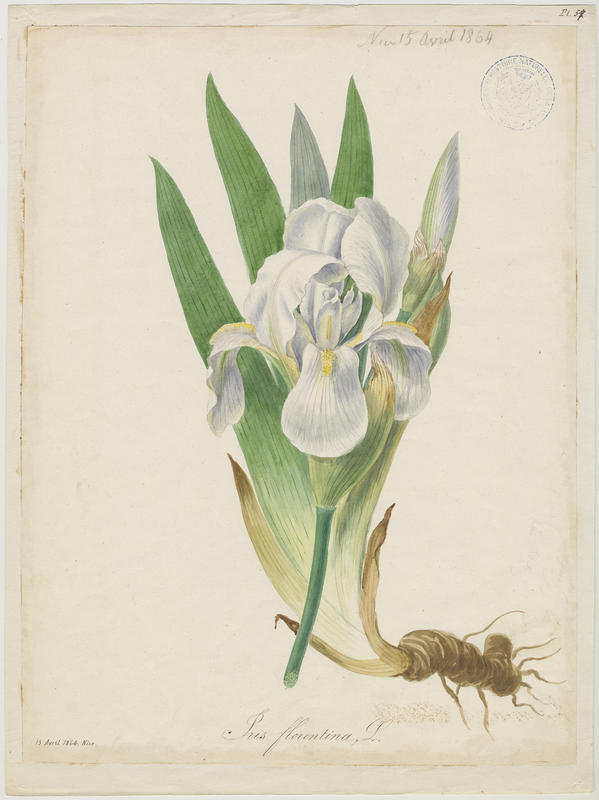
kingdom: Plantae
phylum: Tracheophyta
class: Liliopsida
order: Asparagales
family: Iridaceae
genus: Iris
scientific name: Iris florentina
